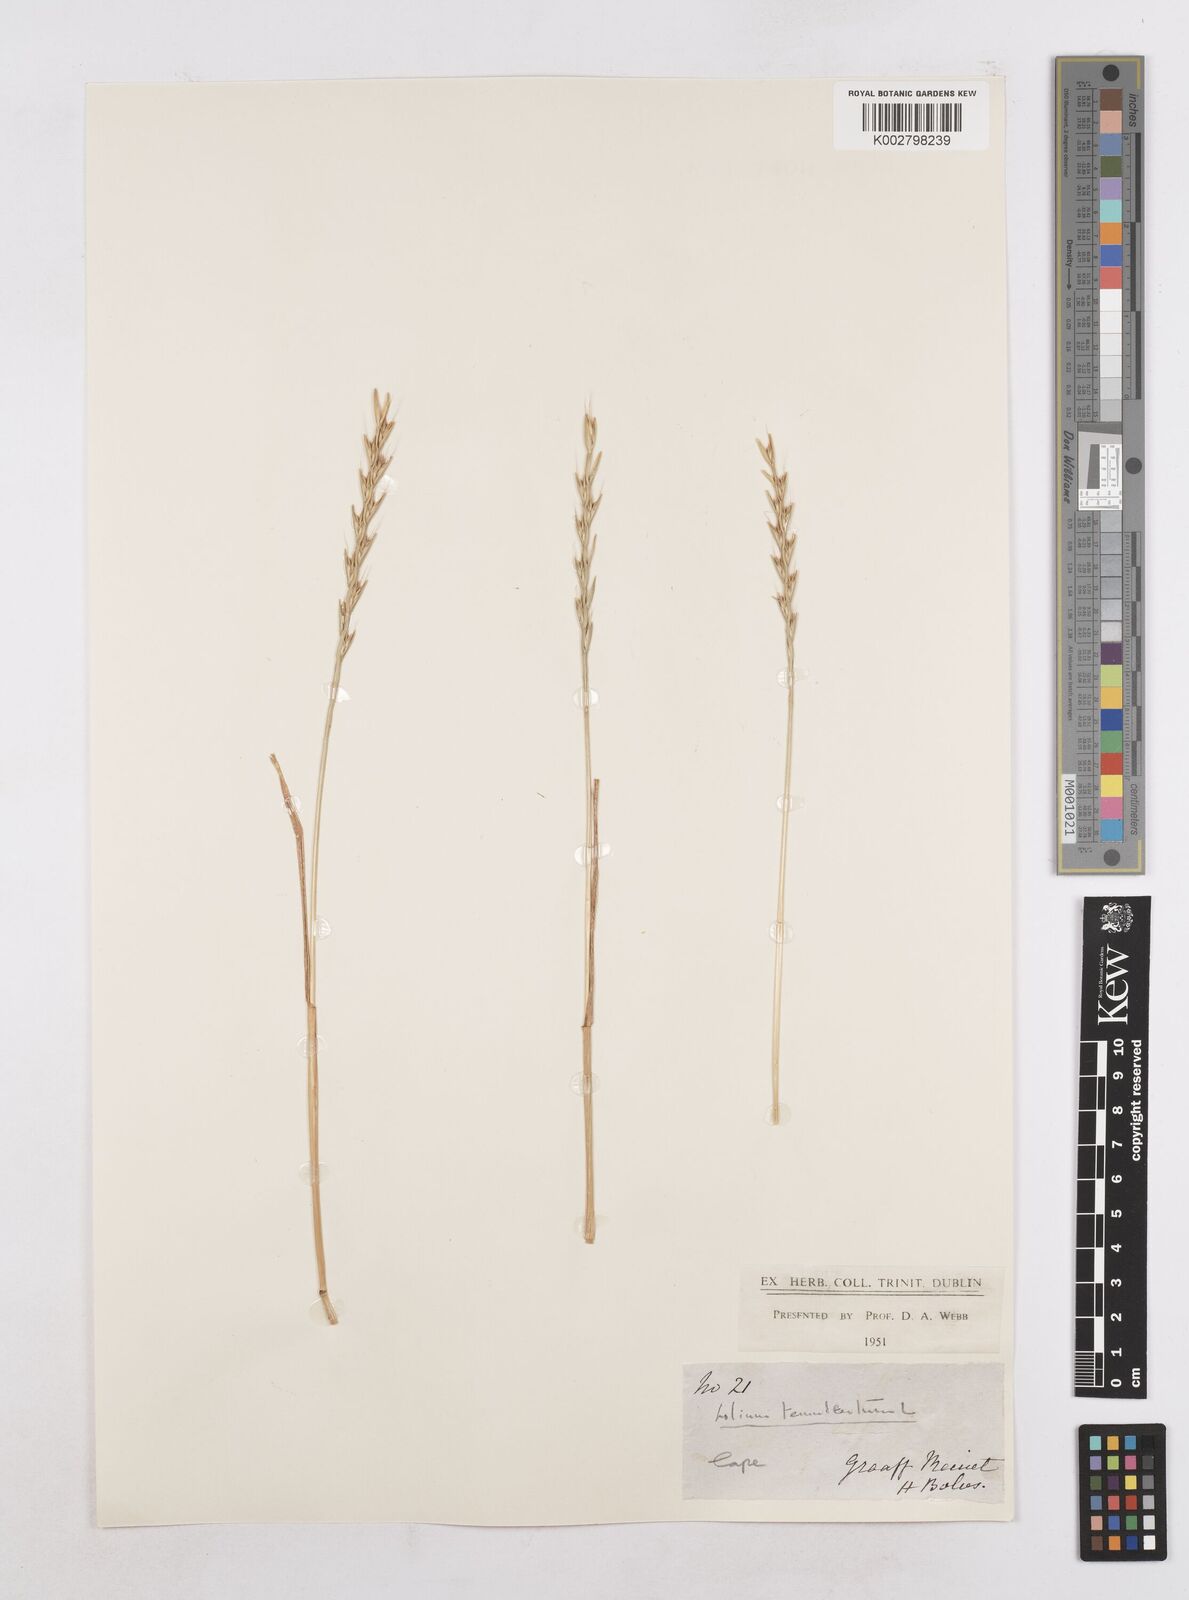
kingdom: Plantae
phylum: Tracheophyta
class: Liliopsida
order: Poales
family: Poaceae
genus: Lolium
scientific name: Lolium temulentum
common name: Darnel
